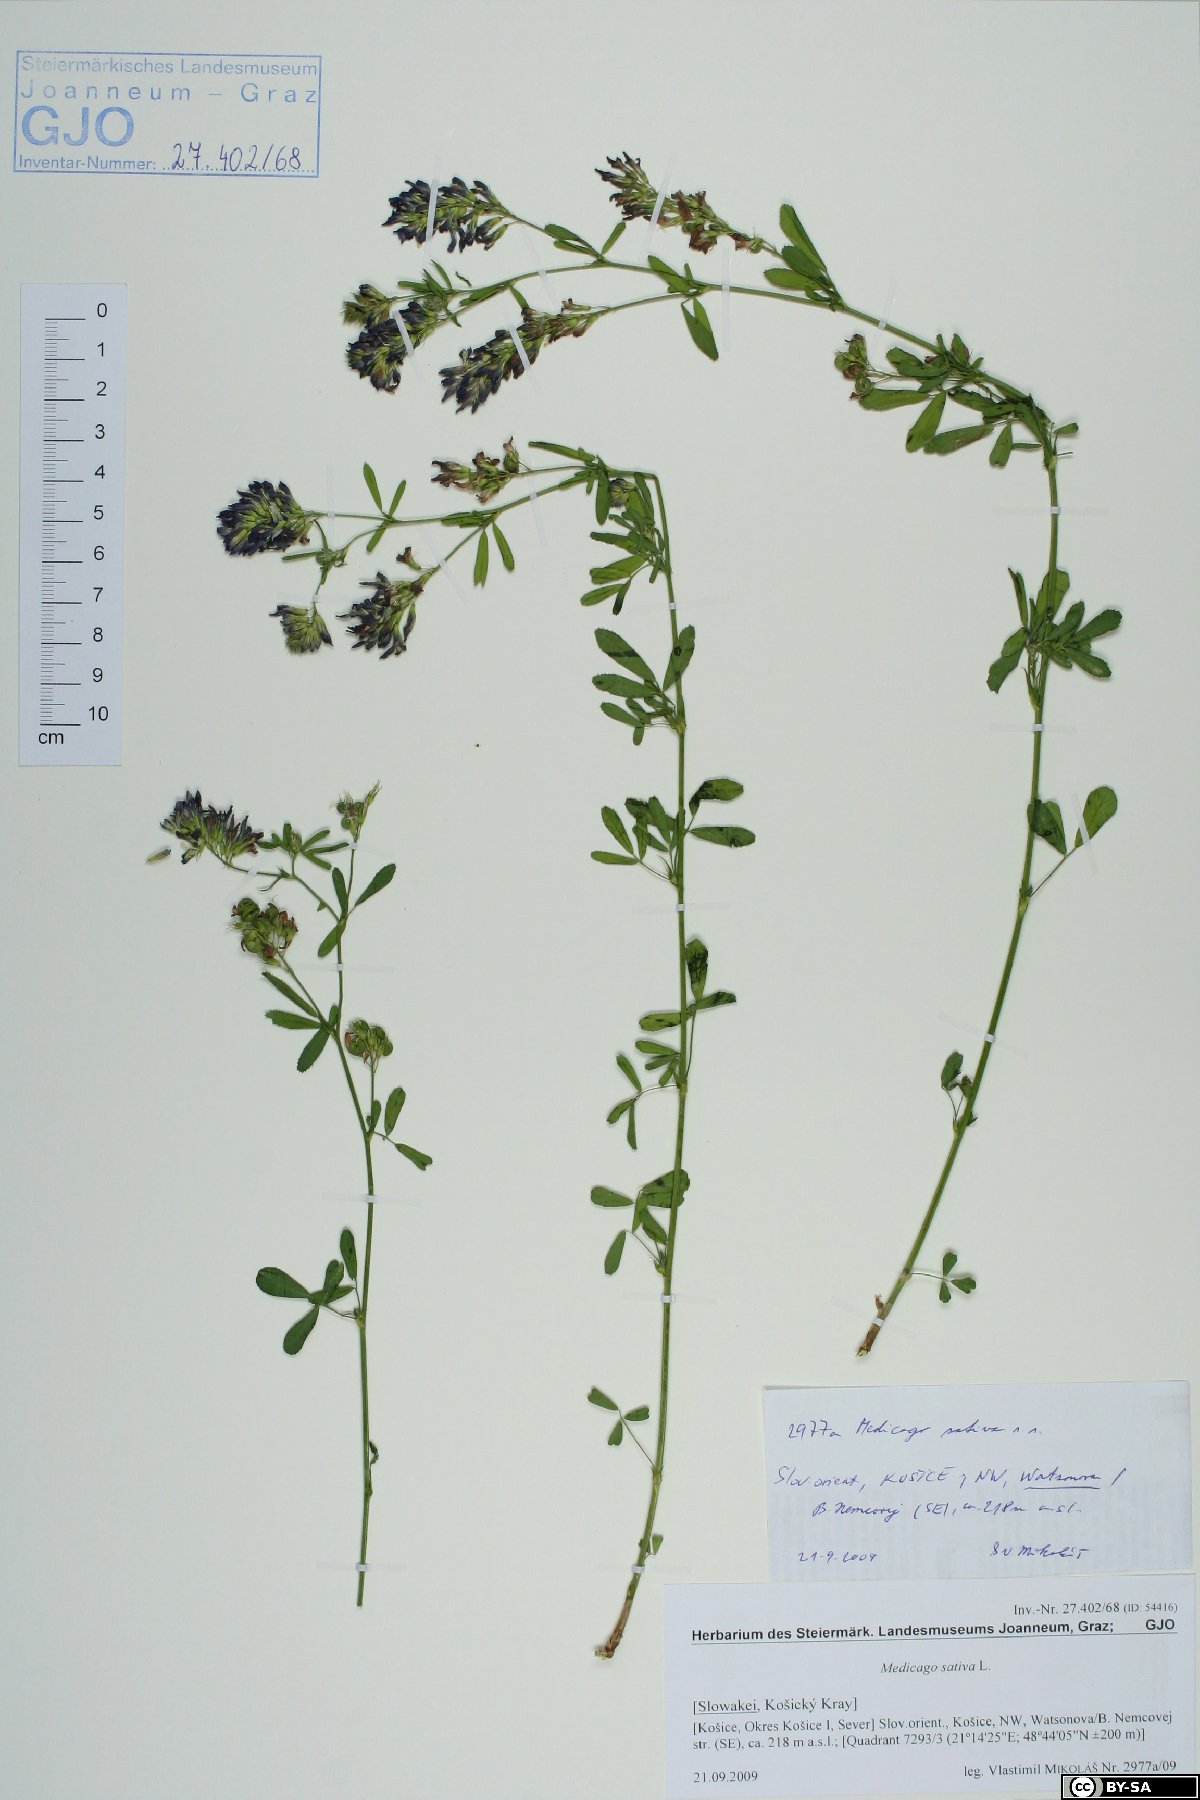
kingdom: Plantae
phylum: Tracheophyta
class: Magnoliopsida
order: Fabales
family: Fabaceae
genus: Medicago
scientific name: Medicago sativa
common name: Alfalfa
